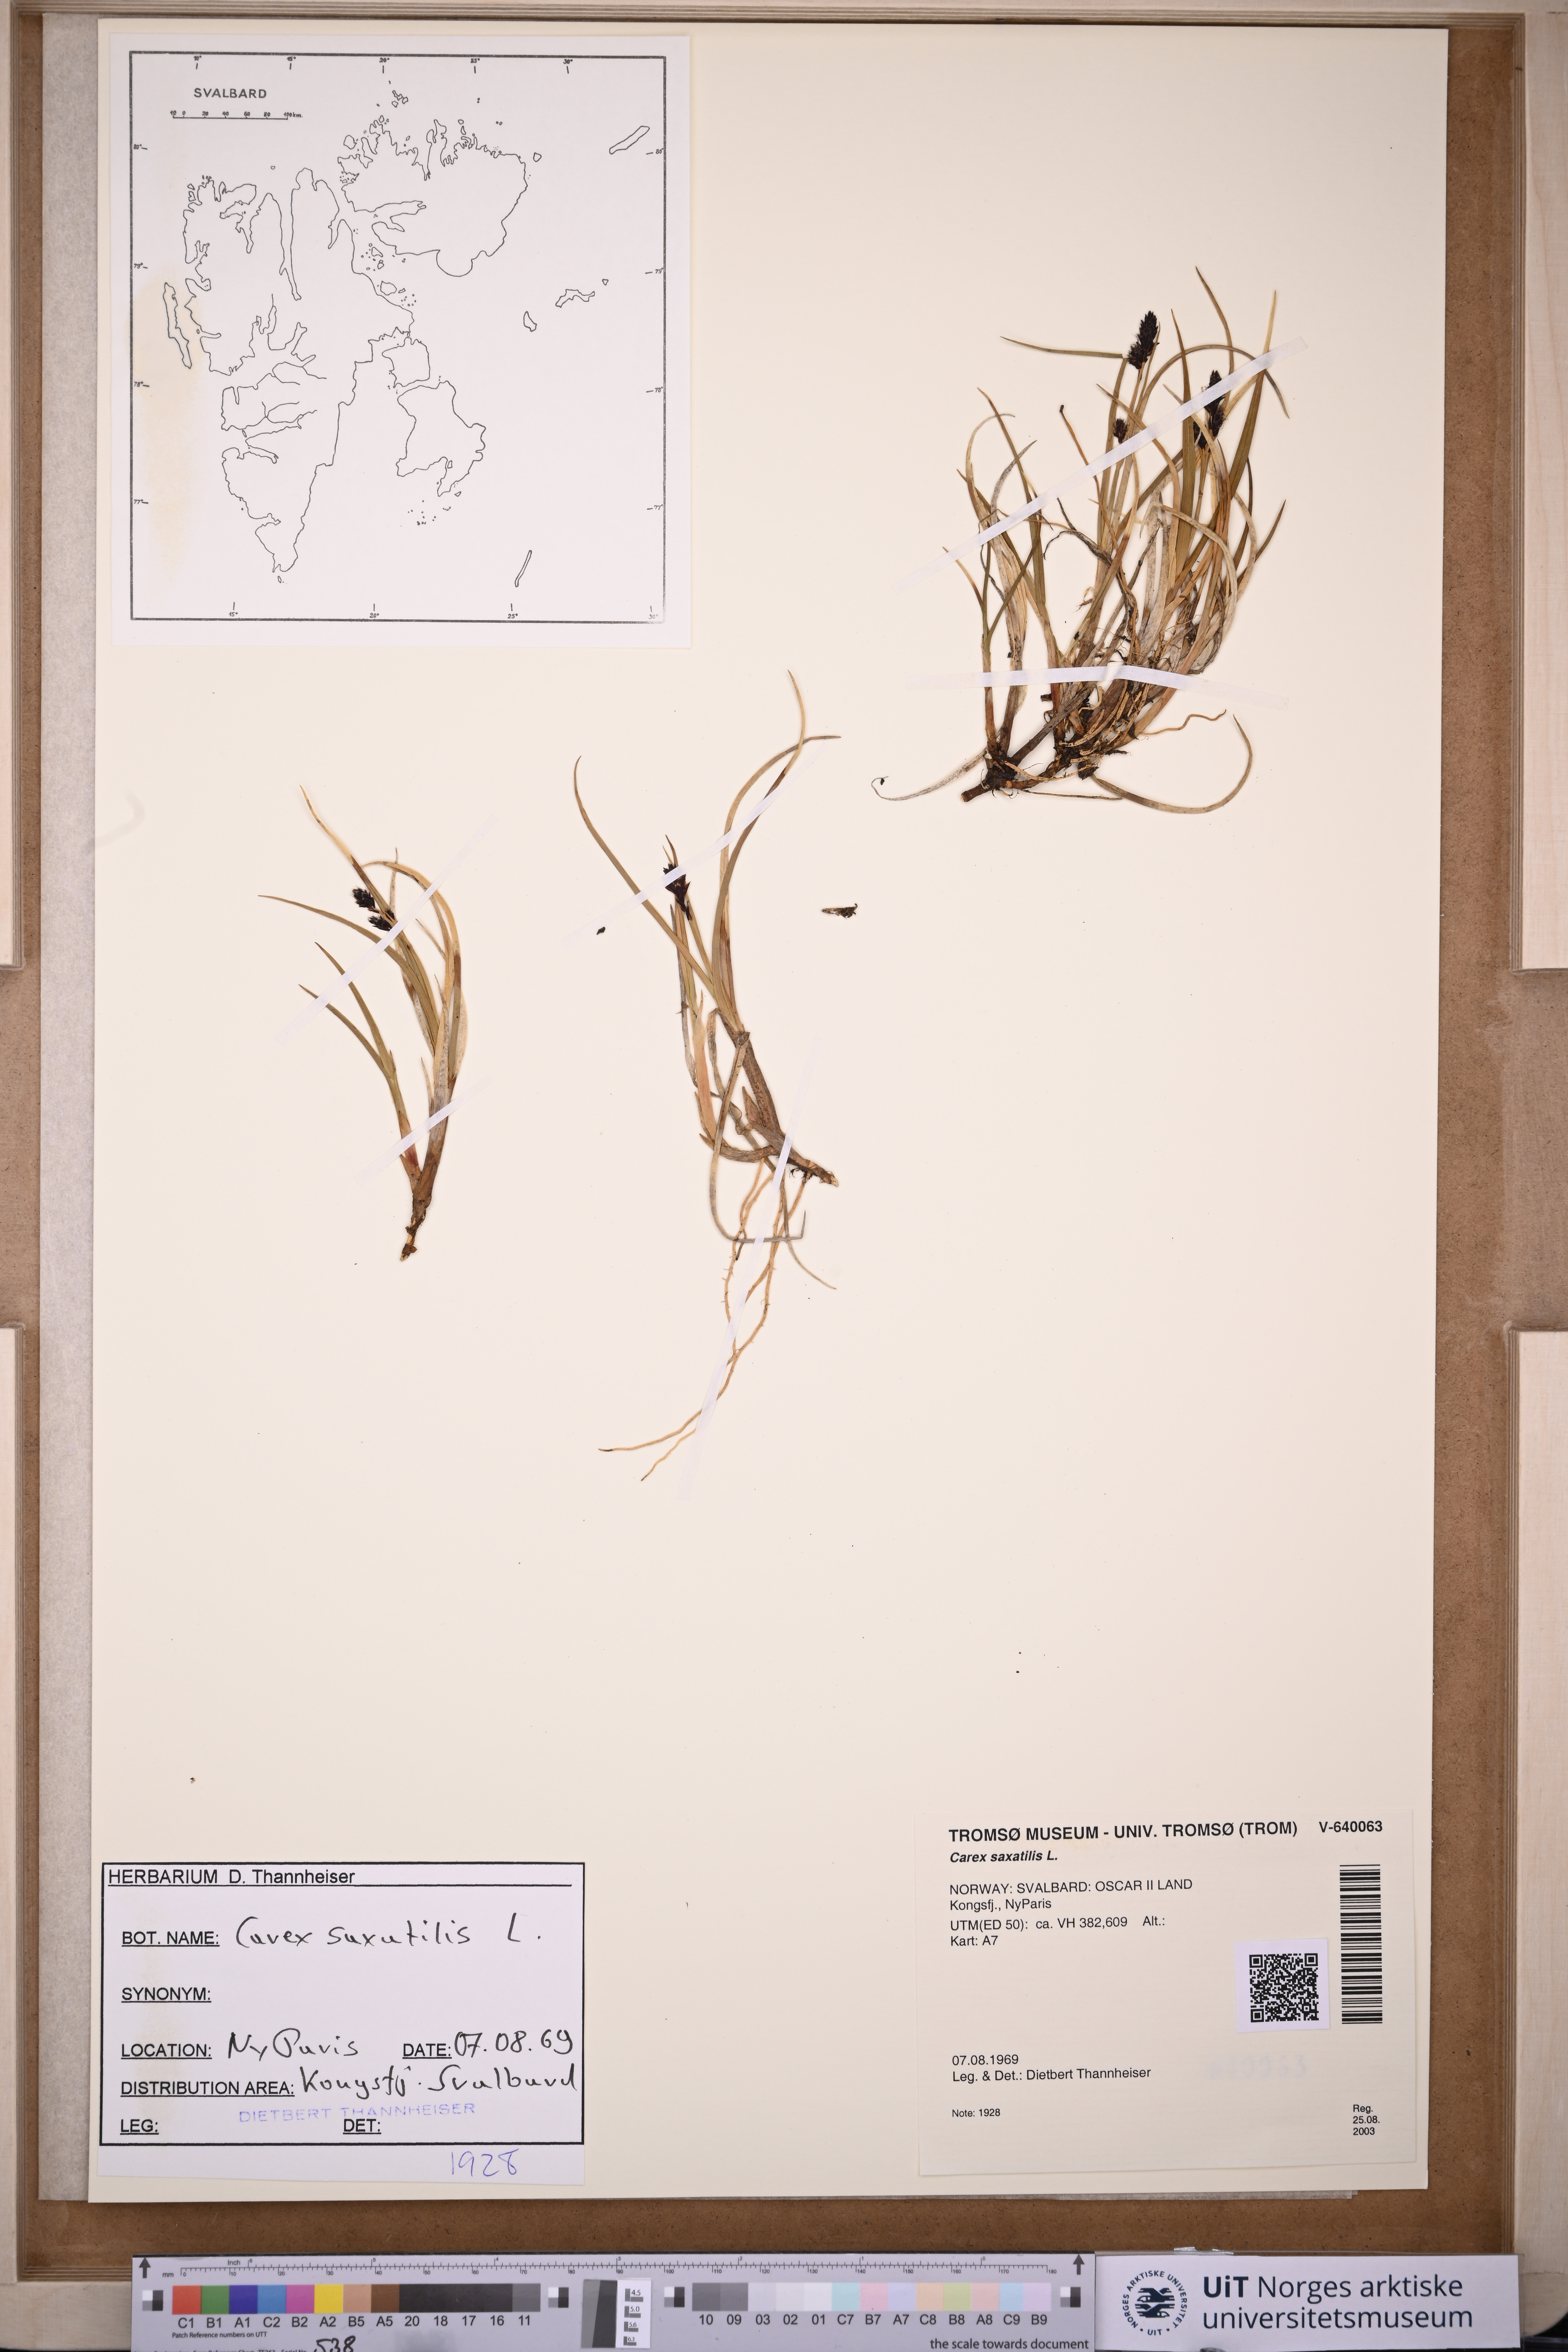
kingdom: Plantae
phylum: Tracheophyta
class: Liliopsida
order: Poales
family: Cyperaceae
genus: Carex
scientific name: Carex saxatilis
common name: Russet sedge
